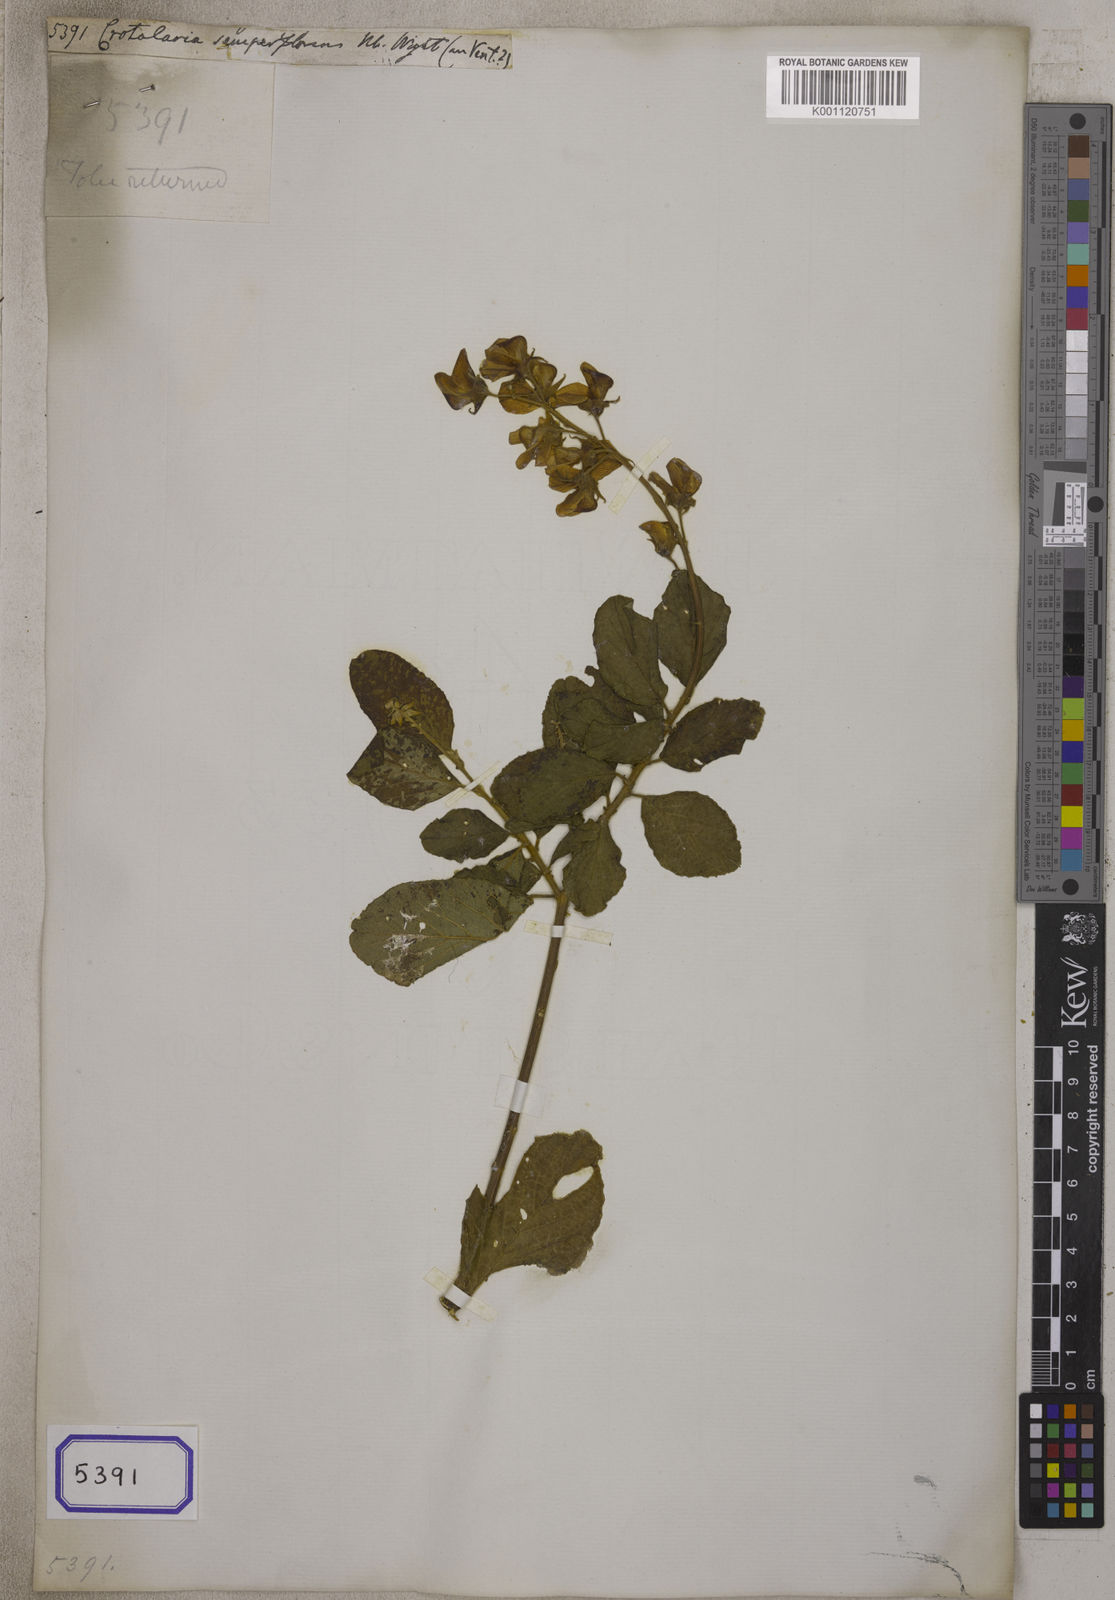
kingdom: Plantae
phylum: Tracheophyta
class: Magnoliopsida
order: Fabales
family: Fabaceae
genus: Crotalaria
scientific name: Crotalaria semperflorens
